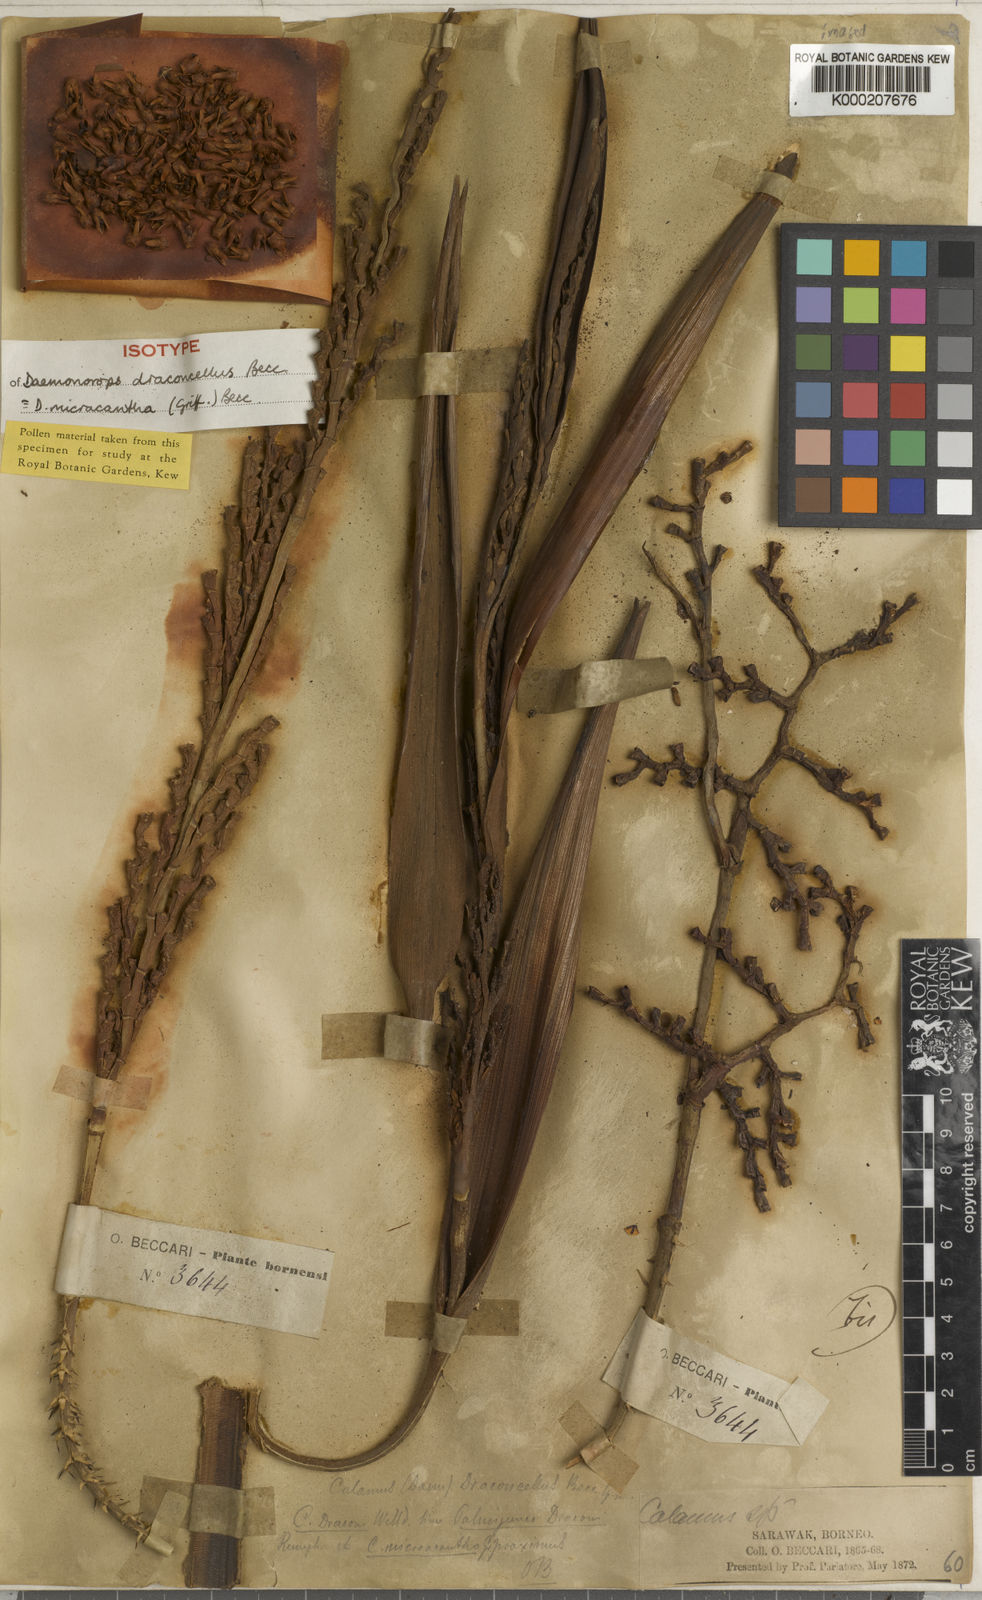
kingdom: Plantae
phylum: Tracheophyta
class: Liliopsida
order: Arecales
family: Arecaceae
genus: Calamus
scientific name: Calamus micracanthus
